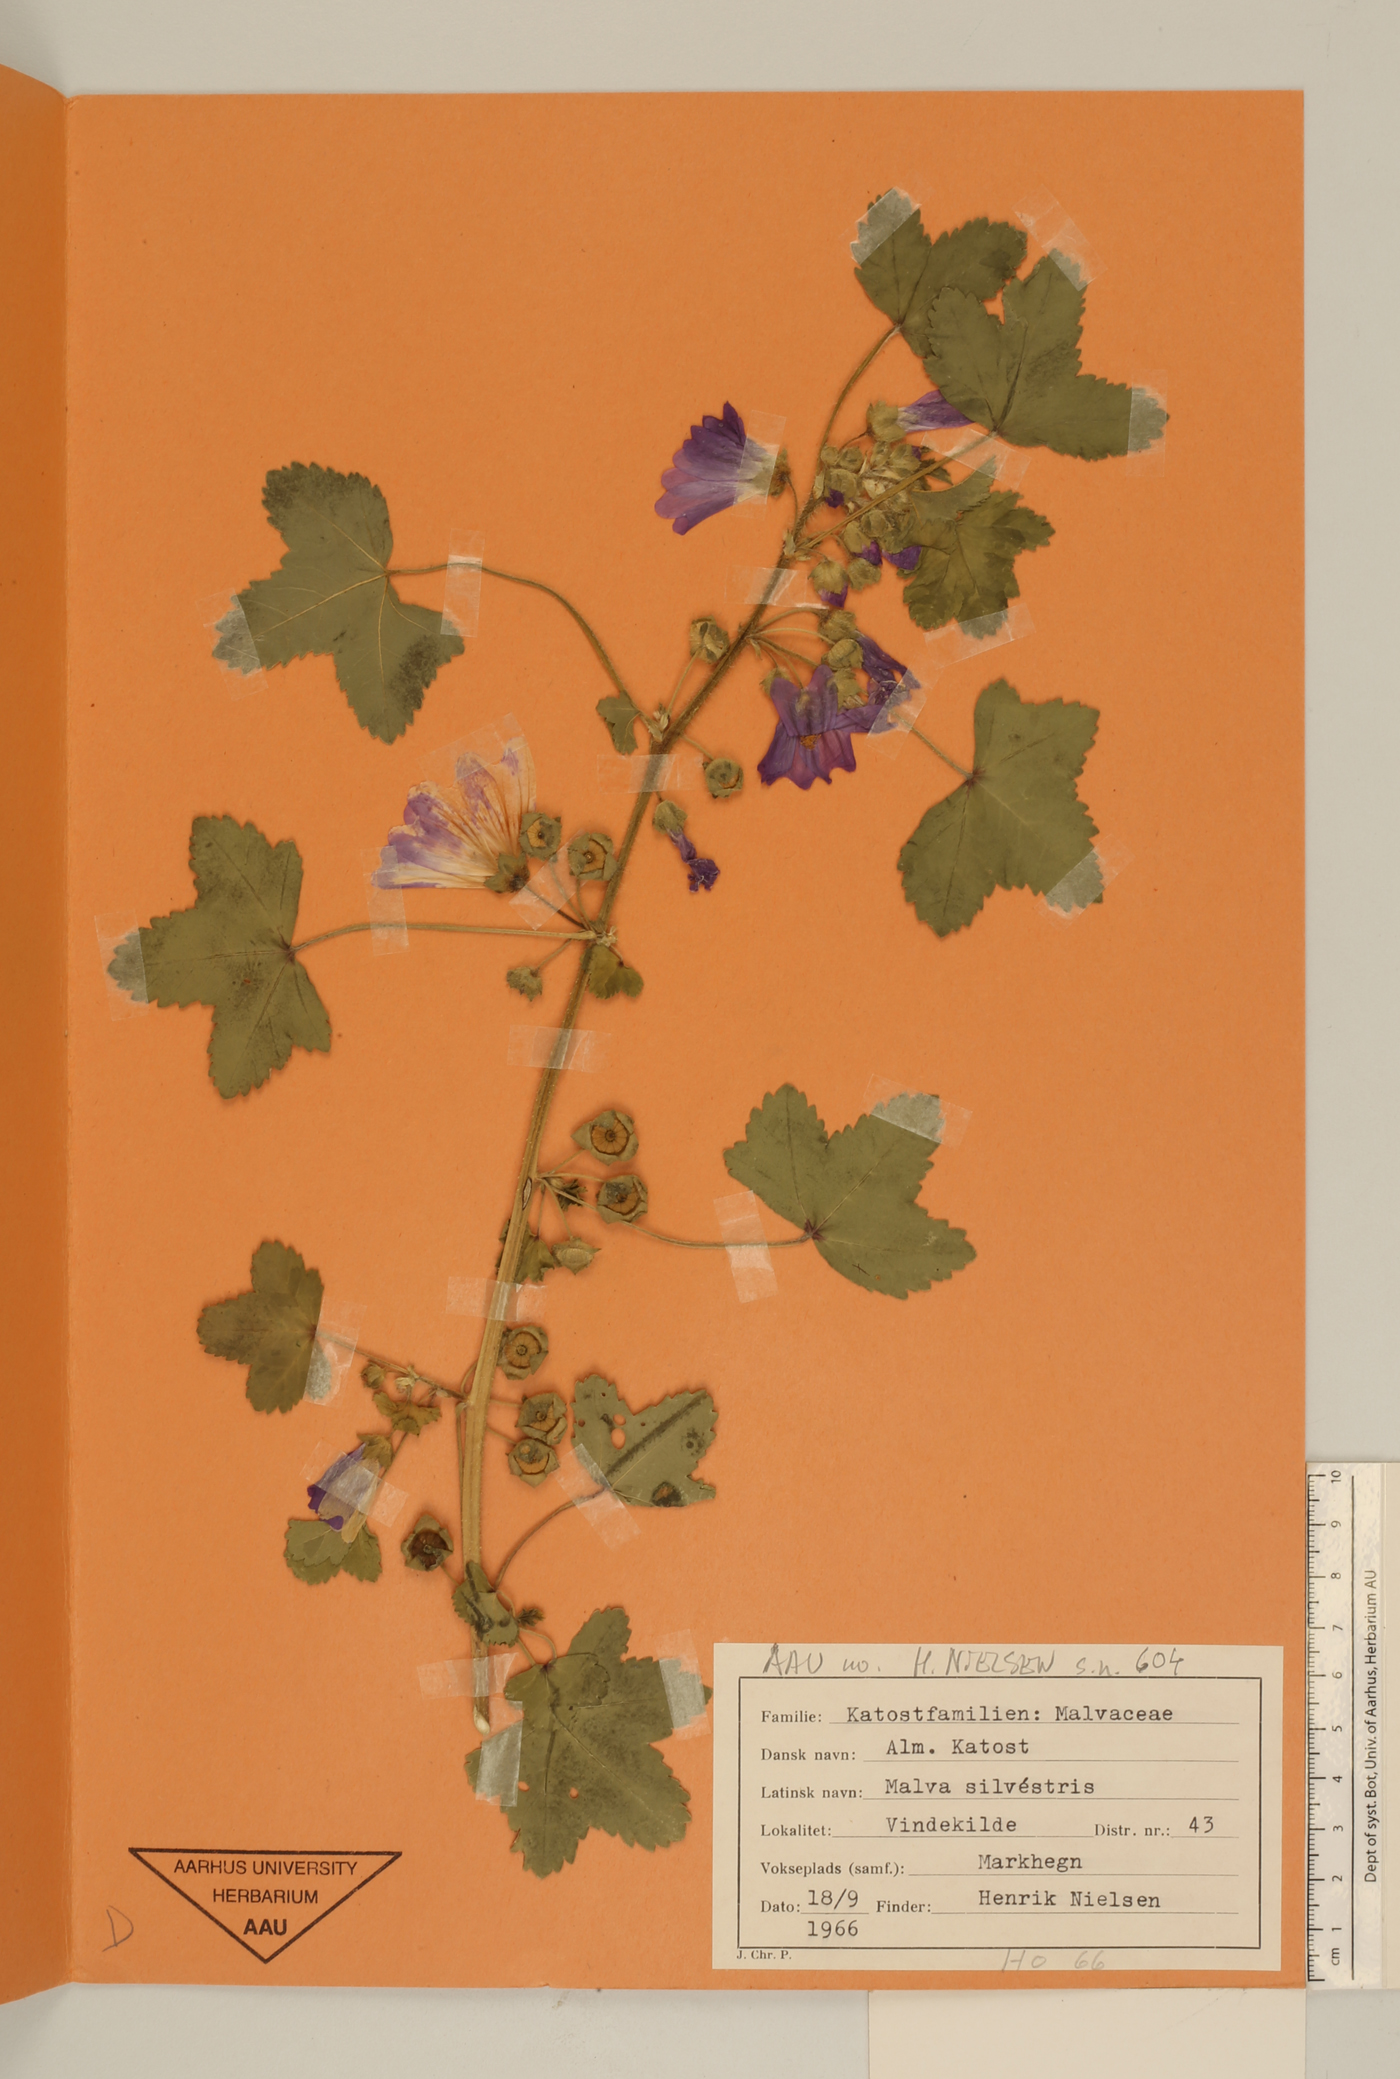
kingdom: Plantae
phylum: Tracheophyta
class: Magnoliopsida
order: Malvales
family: Malvaceae
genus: Malva
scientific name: Malva sylvestris
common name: Common mallow
